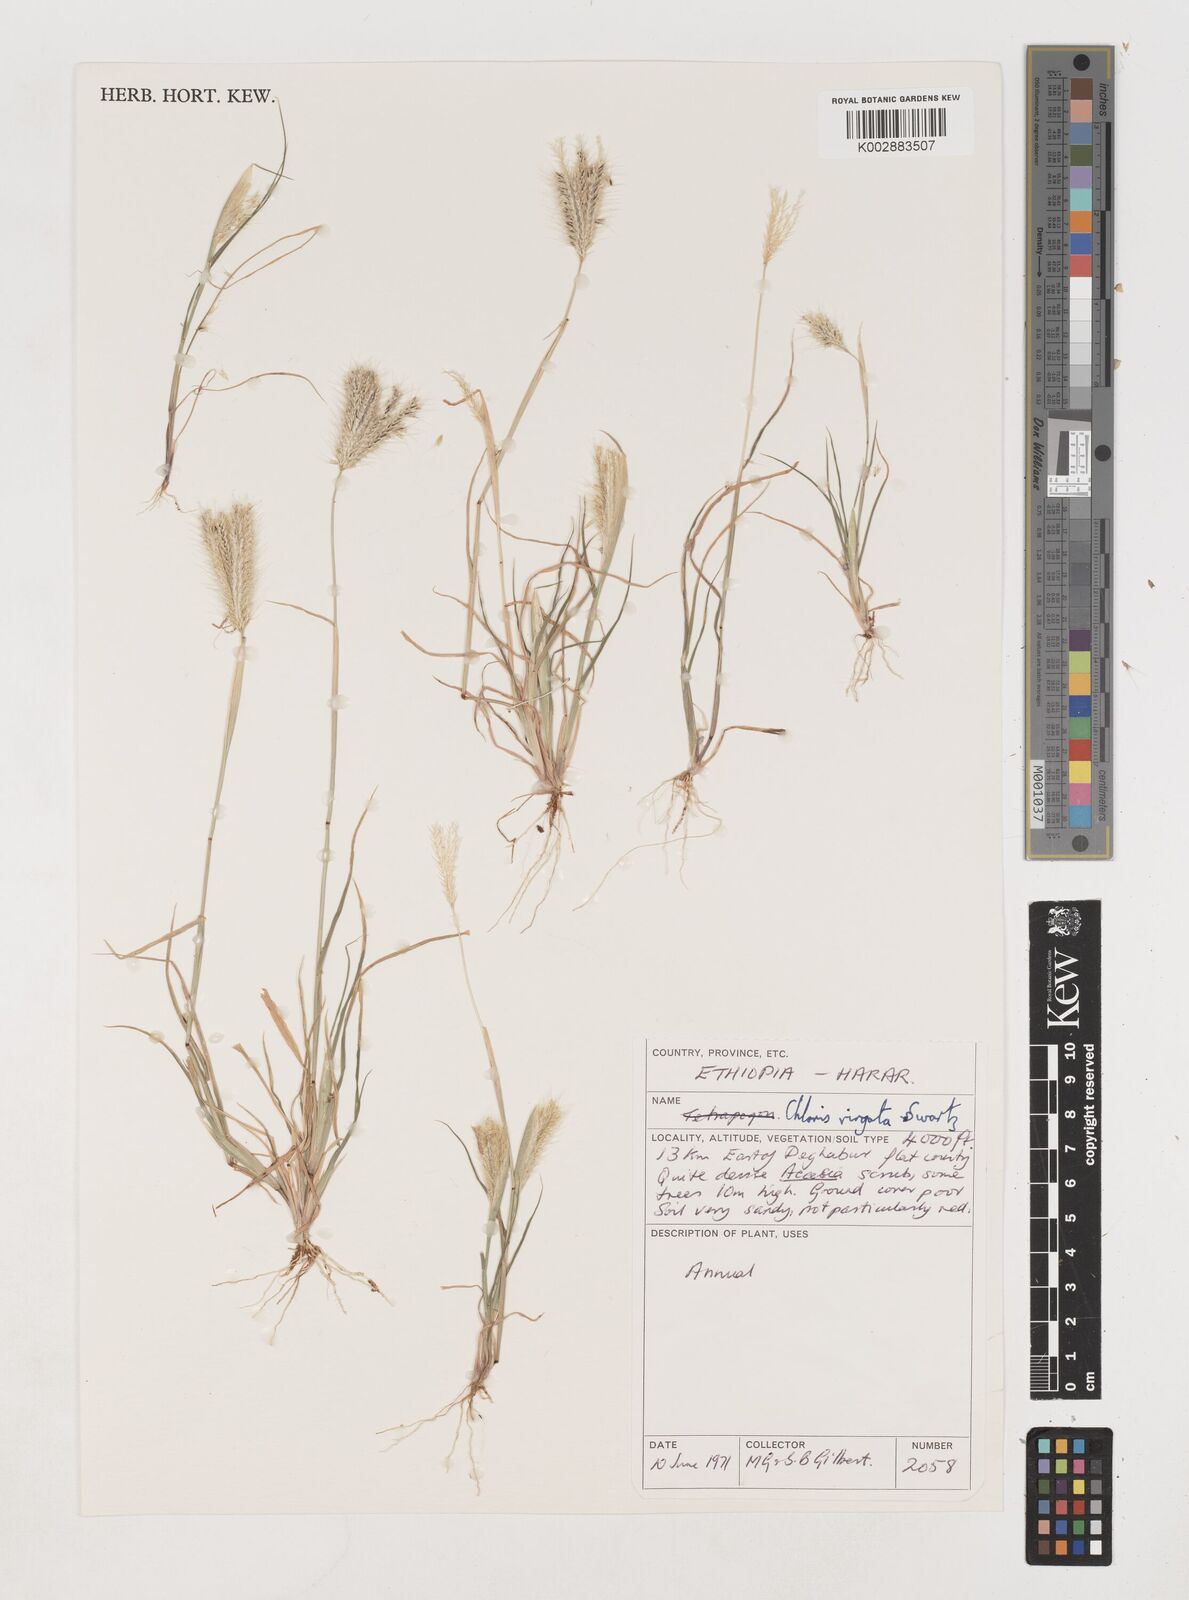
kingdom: Plantae
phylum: Tracheophyta
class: Liliopsida
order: Poales
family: Poaceae
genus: Chloris
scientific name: Chloris virgata
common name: Feathery rhodes-grass
